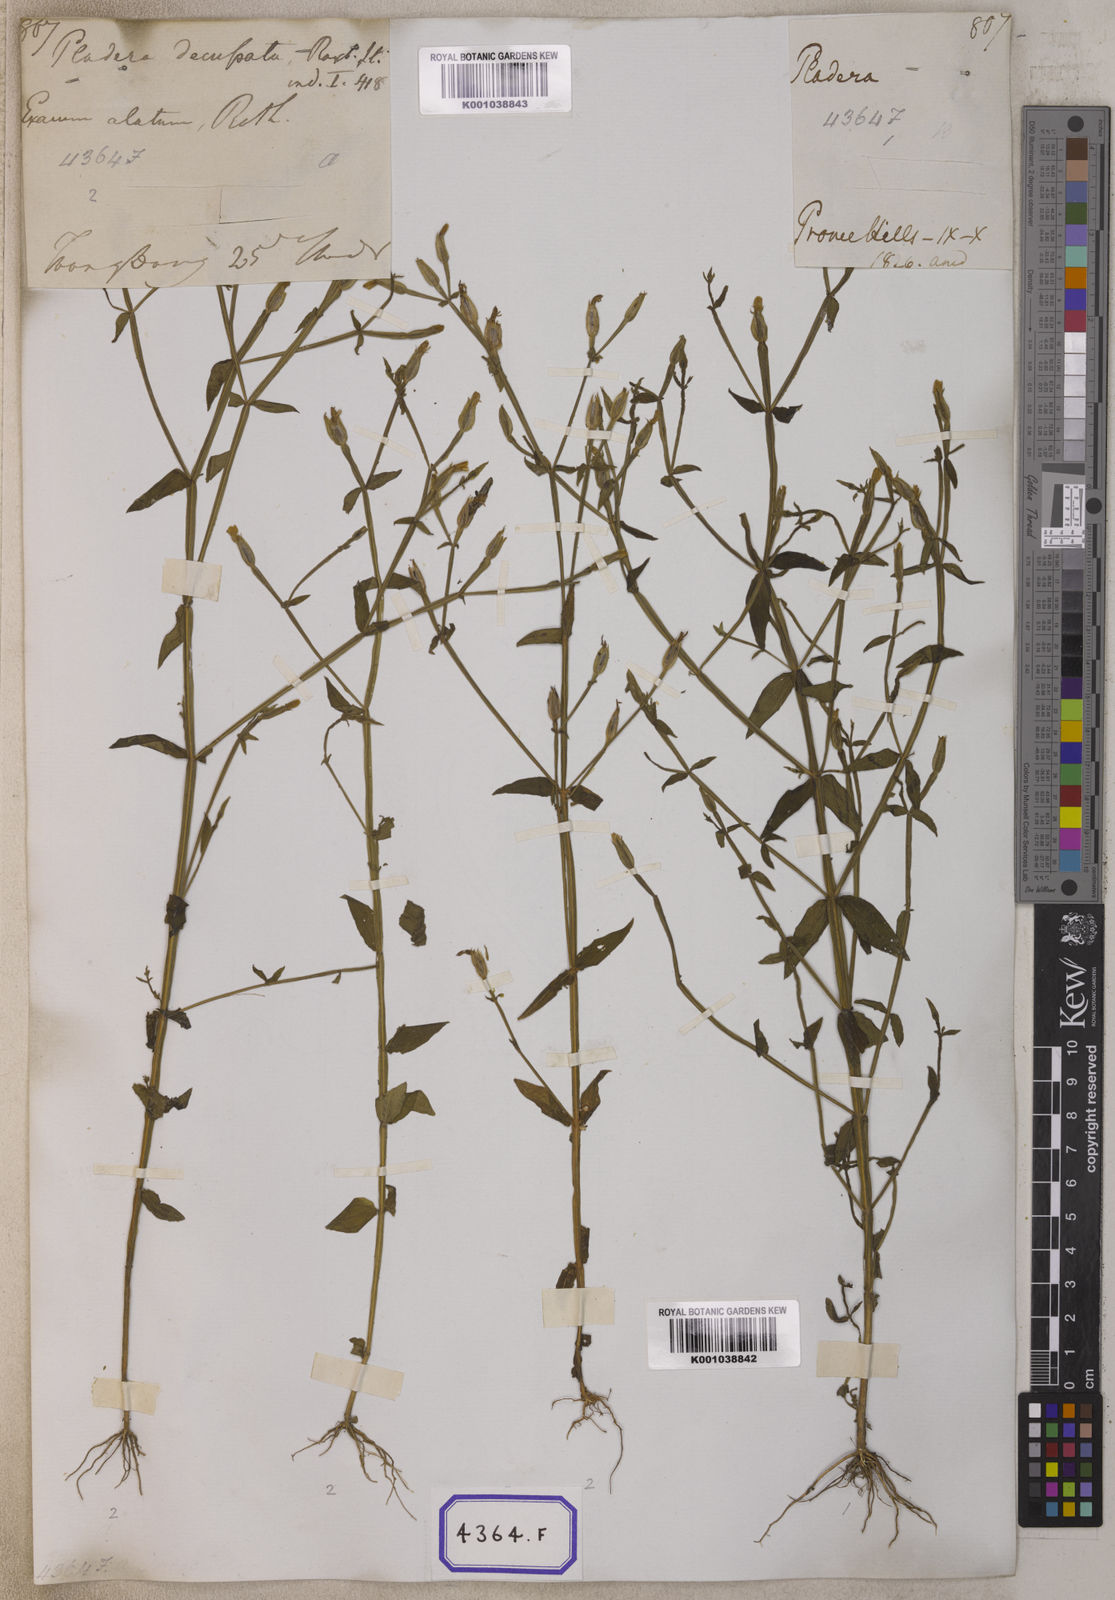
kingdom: Plantae
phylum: Tracheophyta
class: Magnoliopsida
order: Gentianales
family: Gentianaceae
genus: Canscora
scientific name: Canscora alata
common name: Canscora
